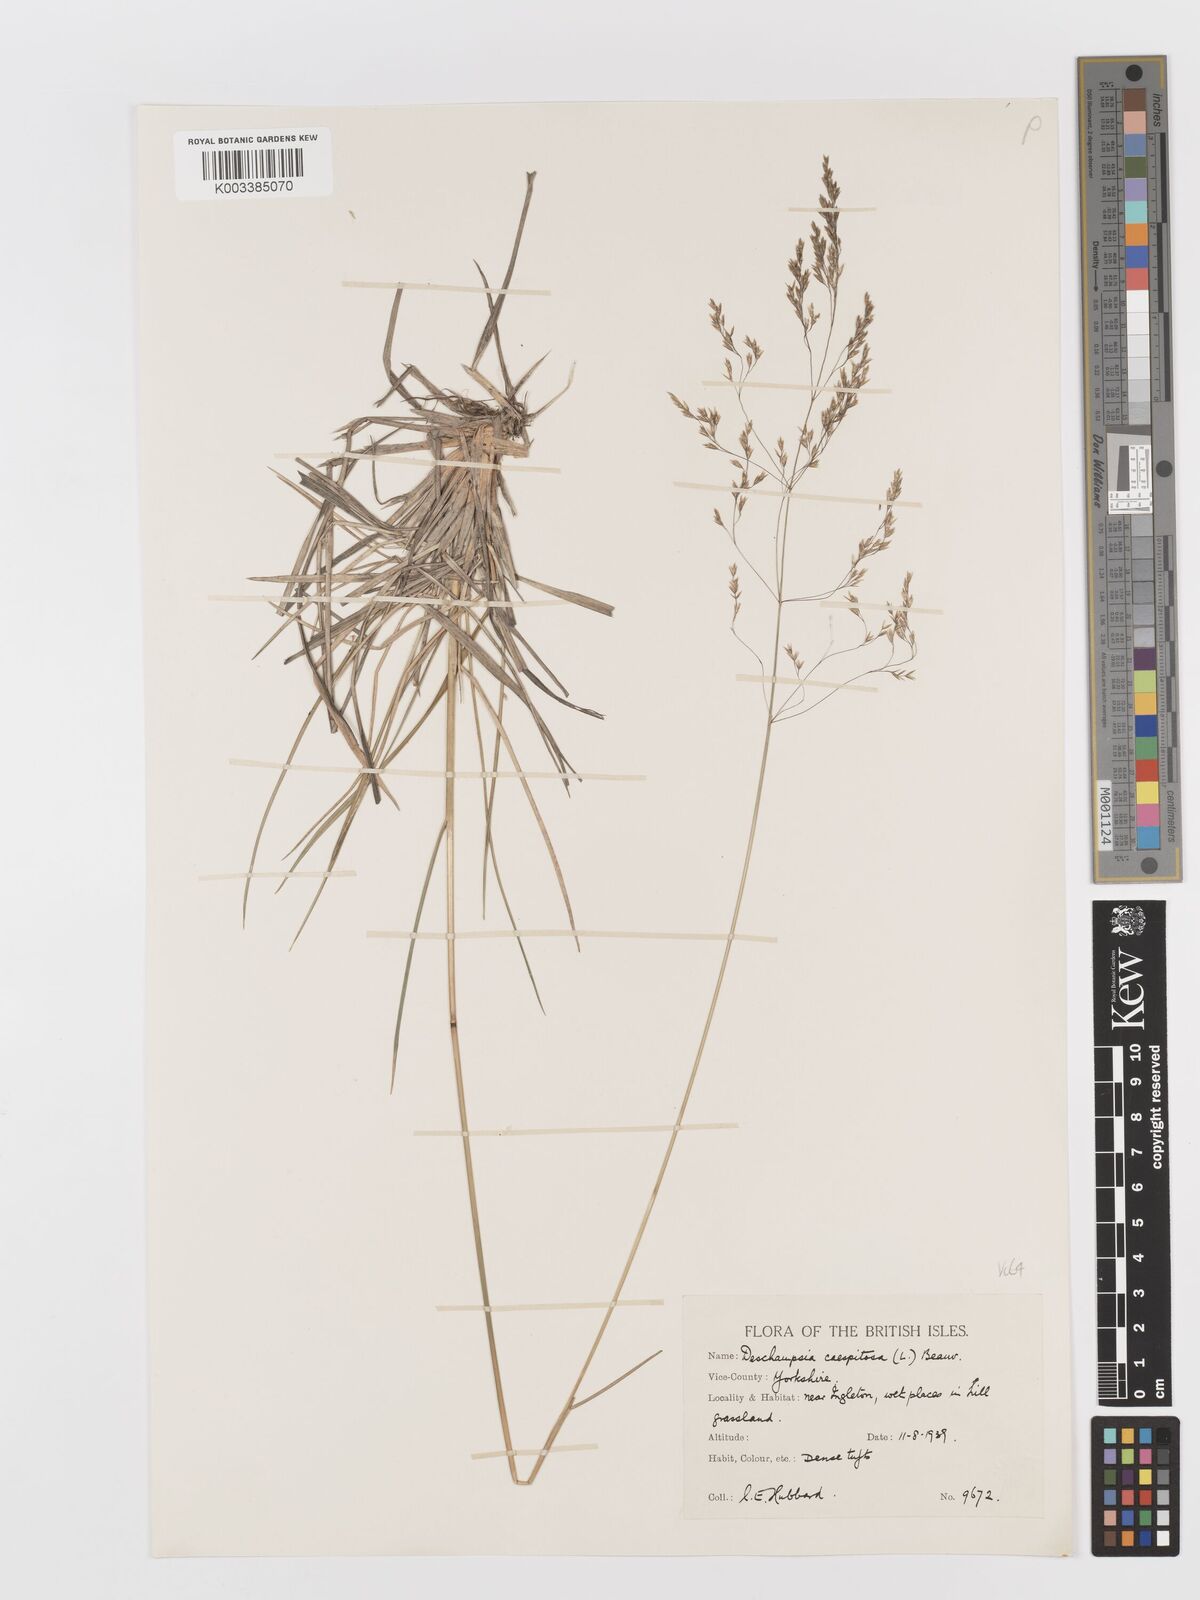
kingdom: Plantae
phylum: Tracheophyta
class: Liliopsida
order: Poales
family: Poaceae
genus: Deschampsia
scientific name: Deschampsia cespitosa
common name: Tufted hair-grass
